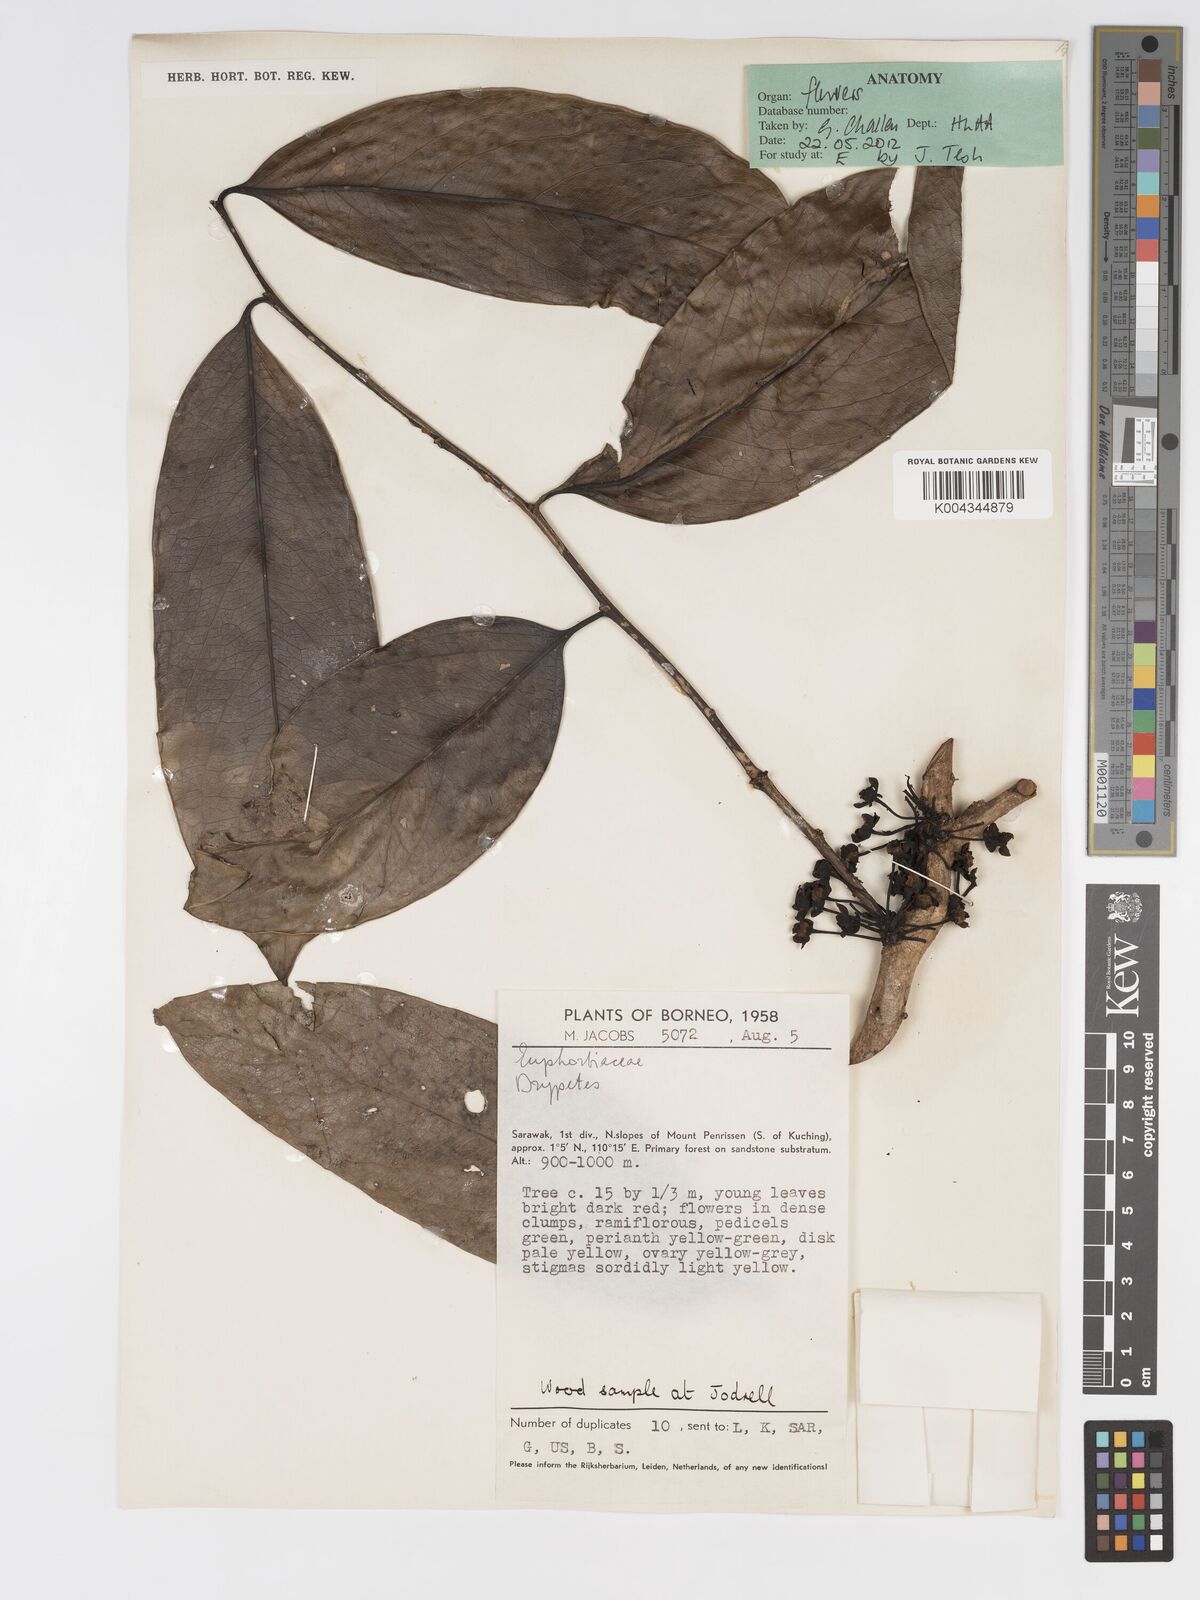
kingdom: Plantae
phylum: Tracheophyta
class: Magnoliopsida
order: Malpighiales
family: Putranjivaceae
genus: Drypetes
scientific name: Drypetes
